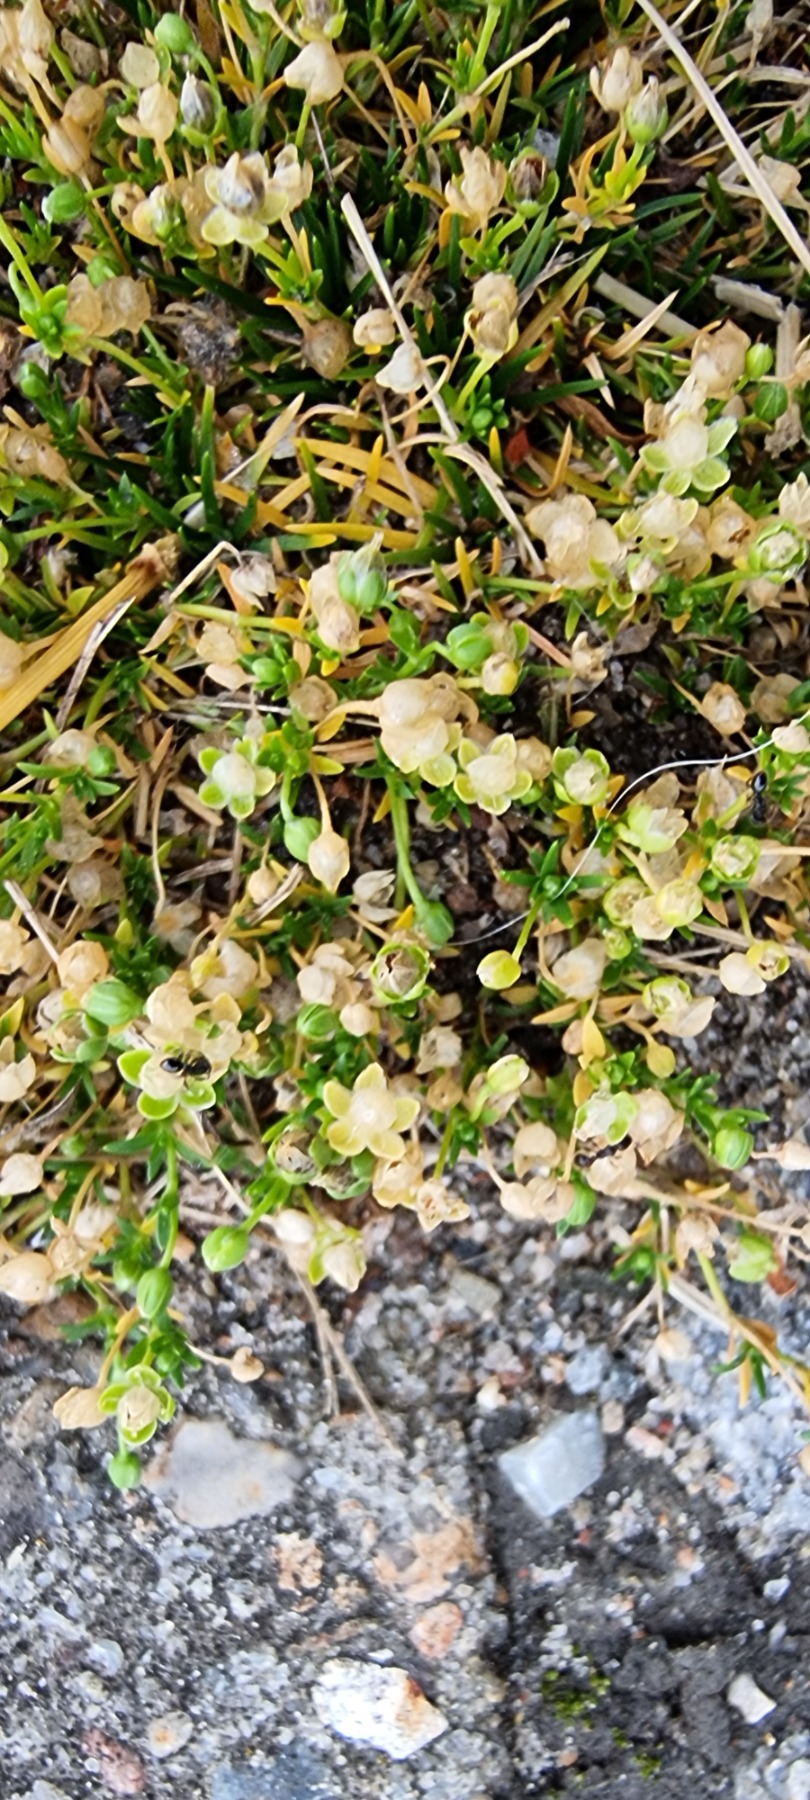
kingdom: Plantae
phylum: Tracheophyta
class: Magnoliopsida
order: Caryophyllales
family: Caryophyllaceae
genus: Sagina
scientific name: Sagina procumbens
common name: Almindelig firling
